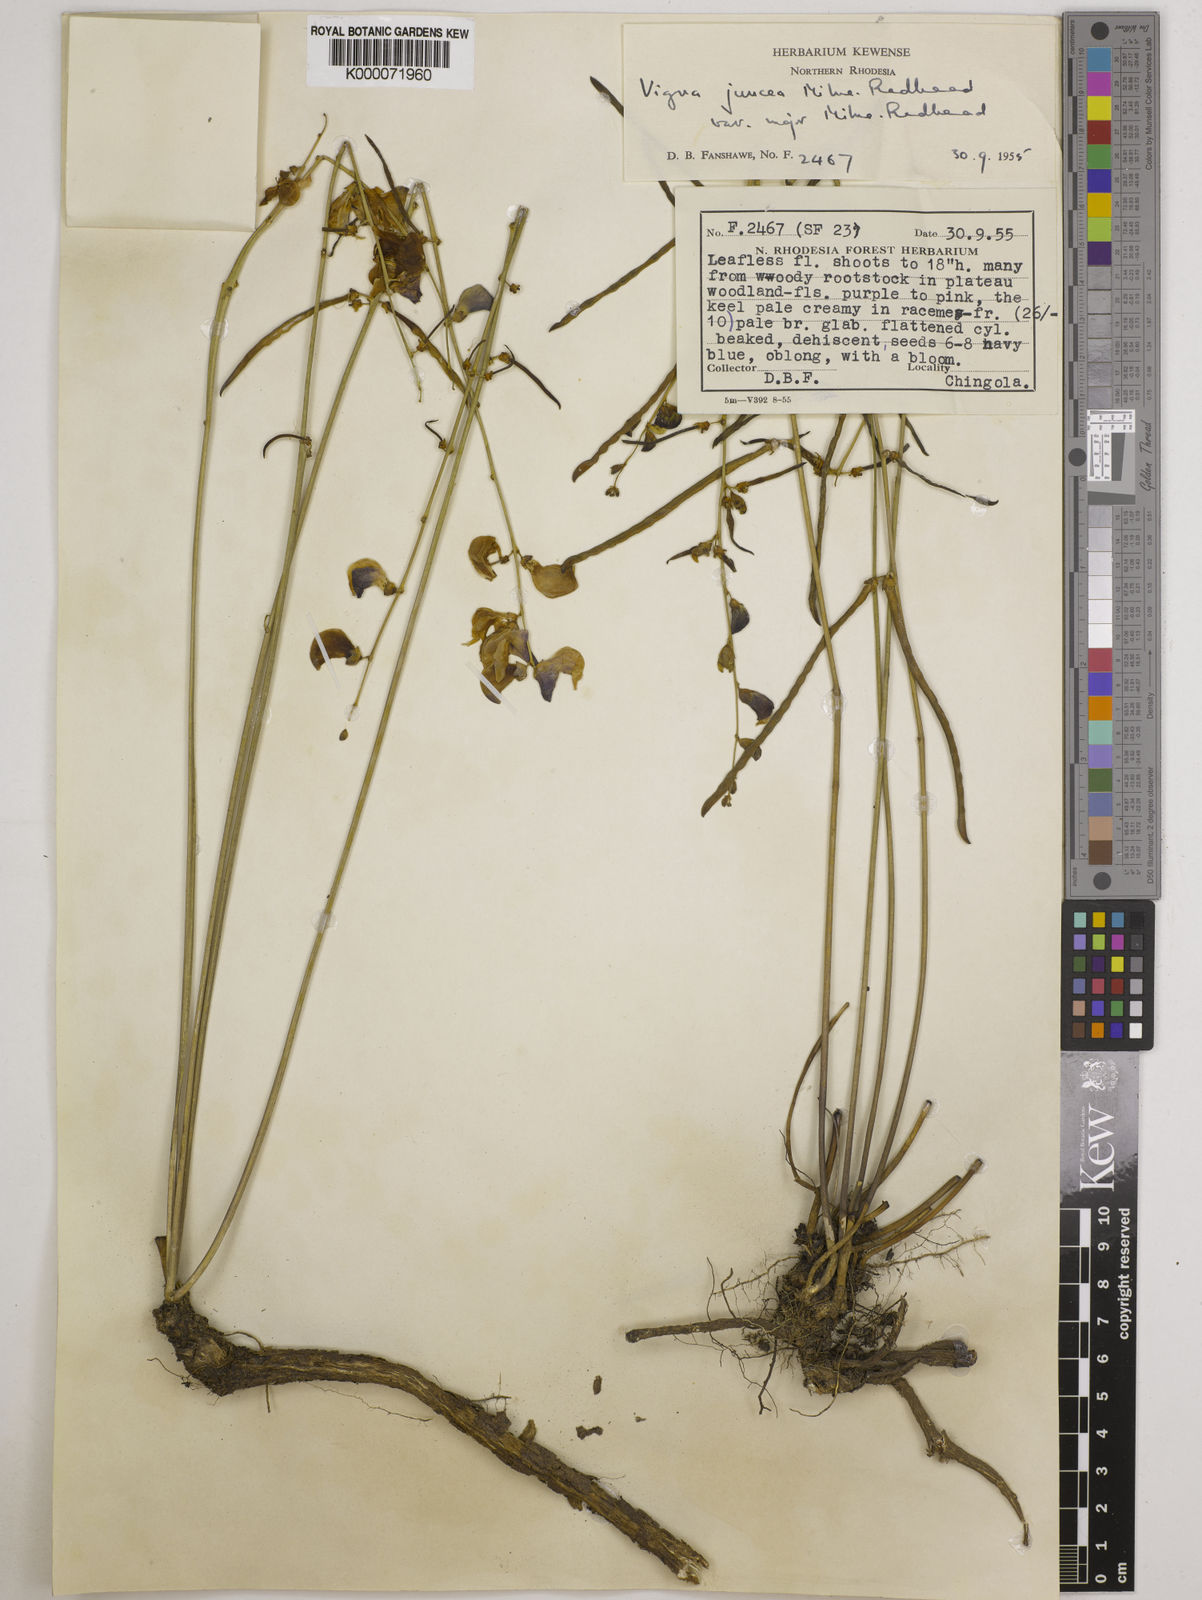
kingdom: Plantae
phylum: Tracheophyta
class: Magnoliopsida
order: Fabales
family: Fabaceae
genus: Vigna
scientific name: Vigna juncea
